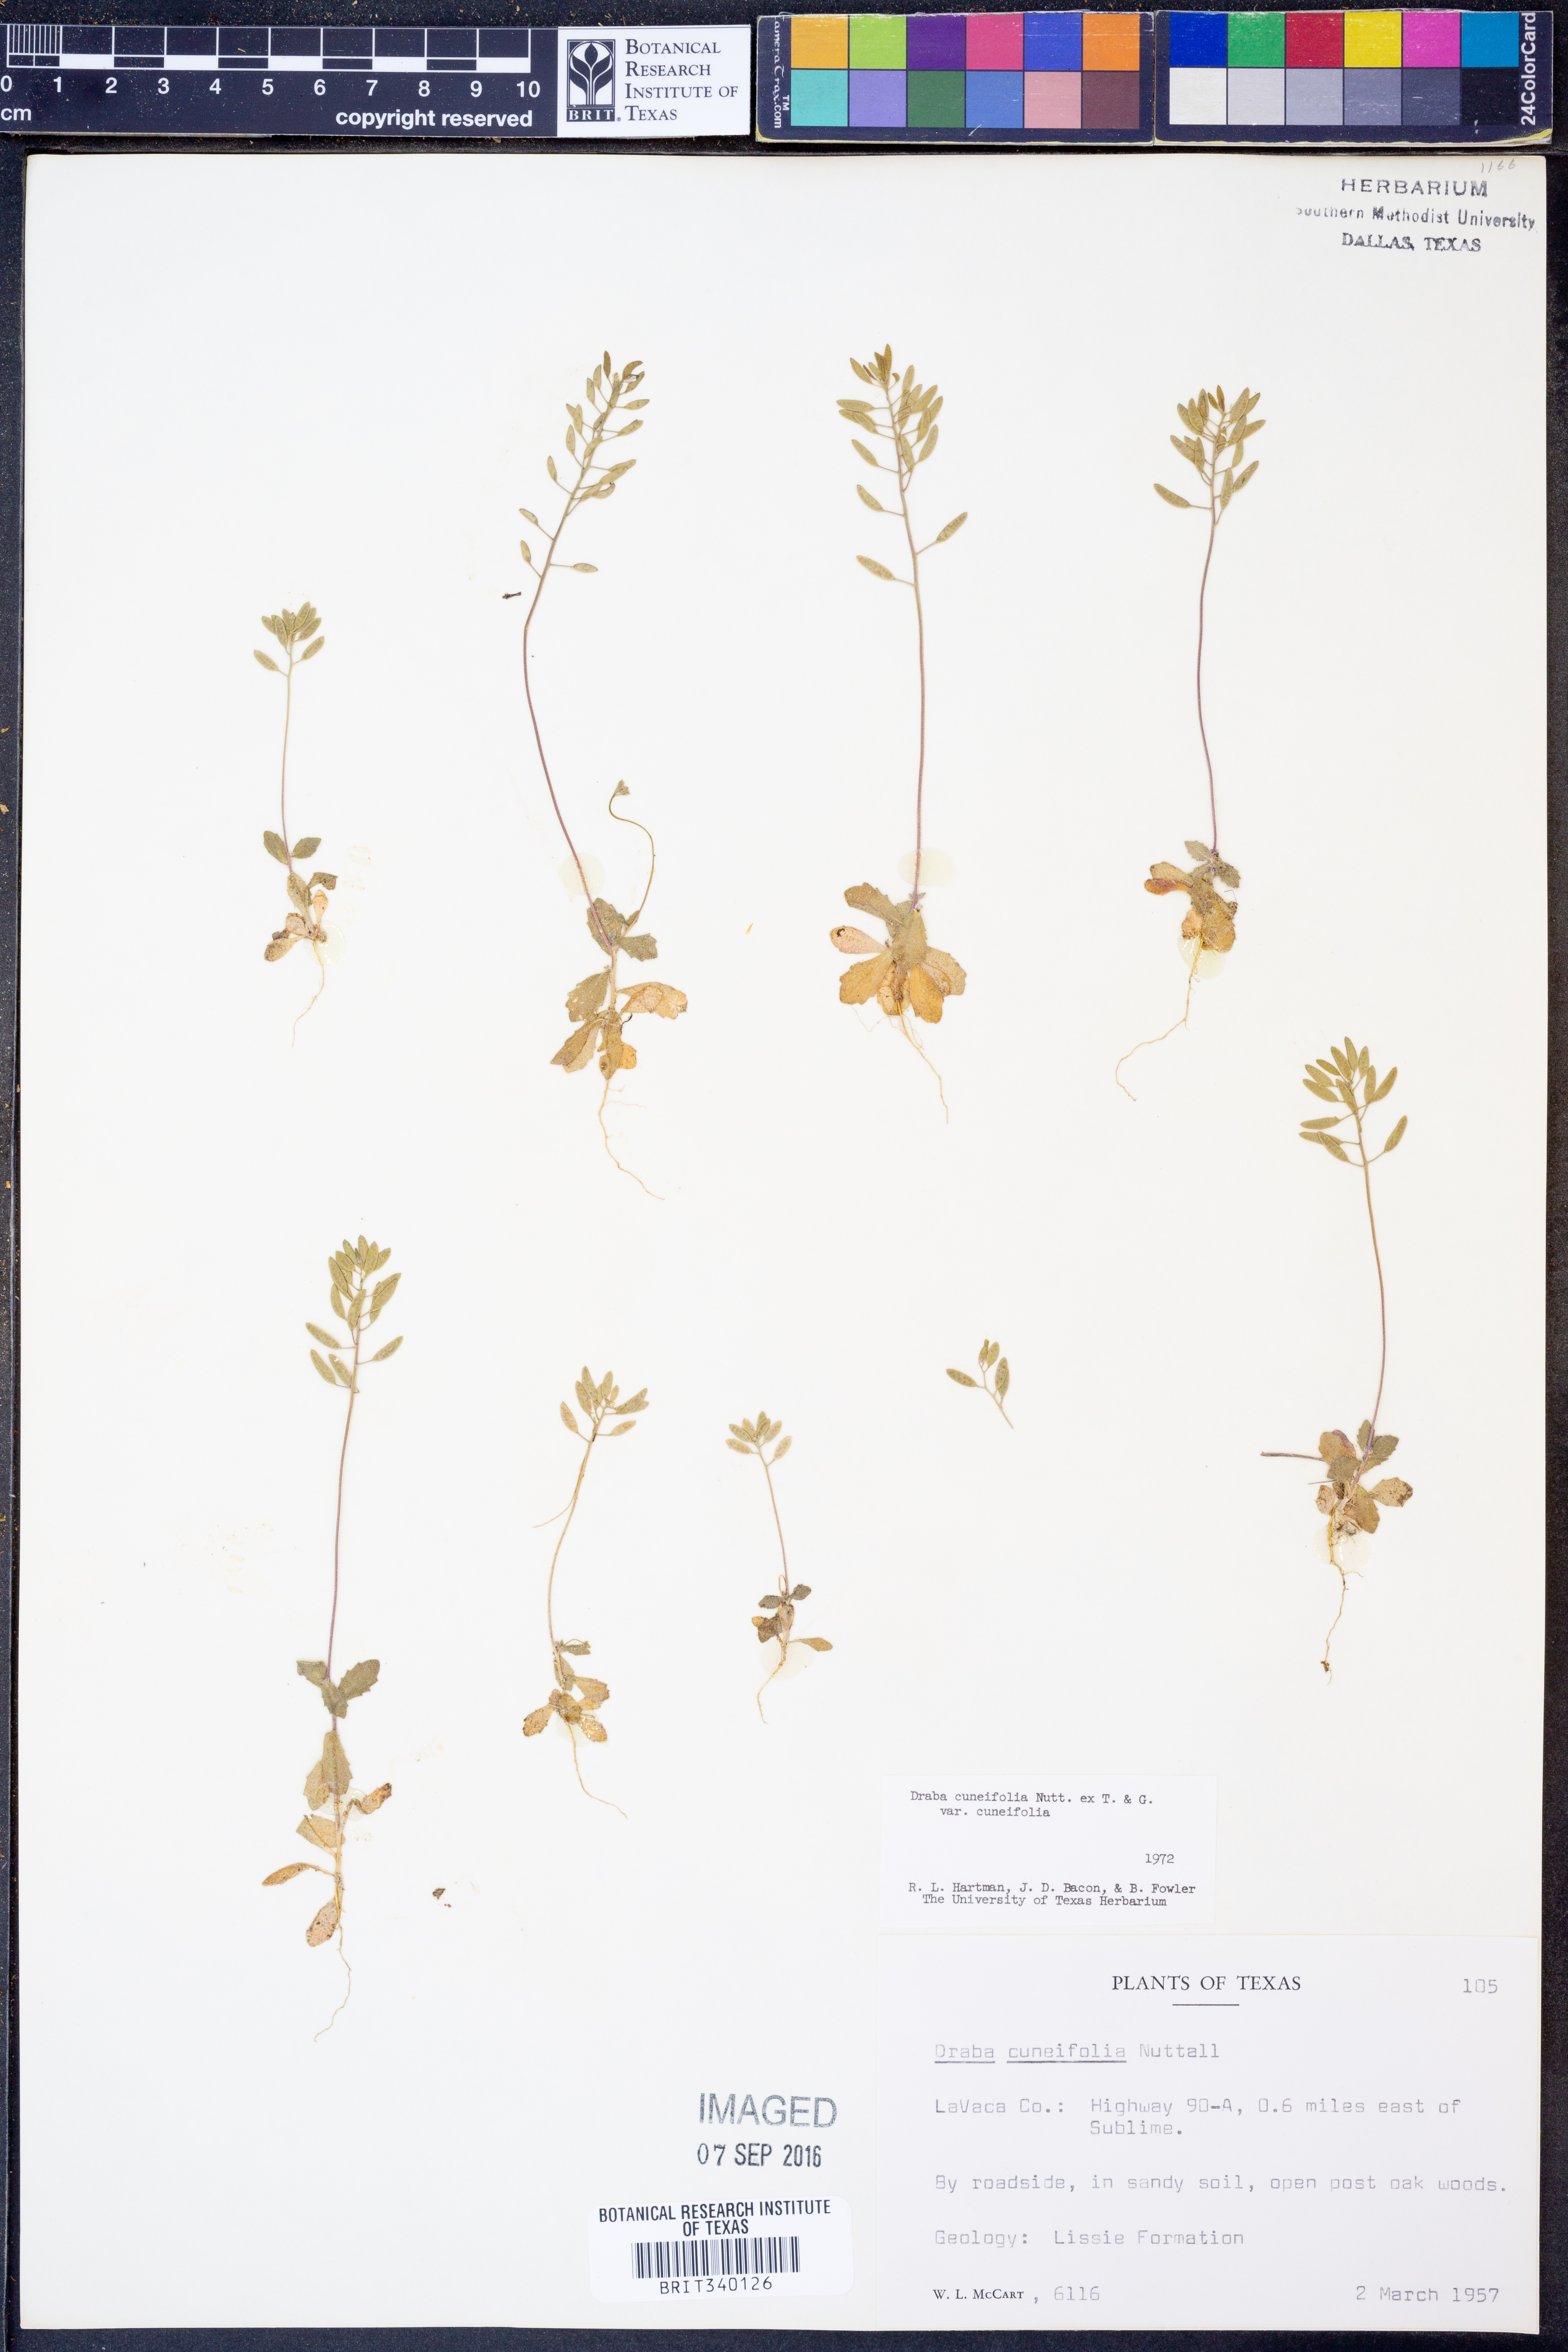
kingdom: Plantae
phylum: Tracheophyta
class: Magnoliopsida
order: Brassicales
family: Brassicaceae
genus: Tomostima
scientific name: Tomostima cuneifolia
